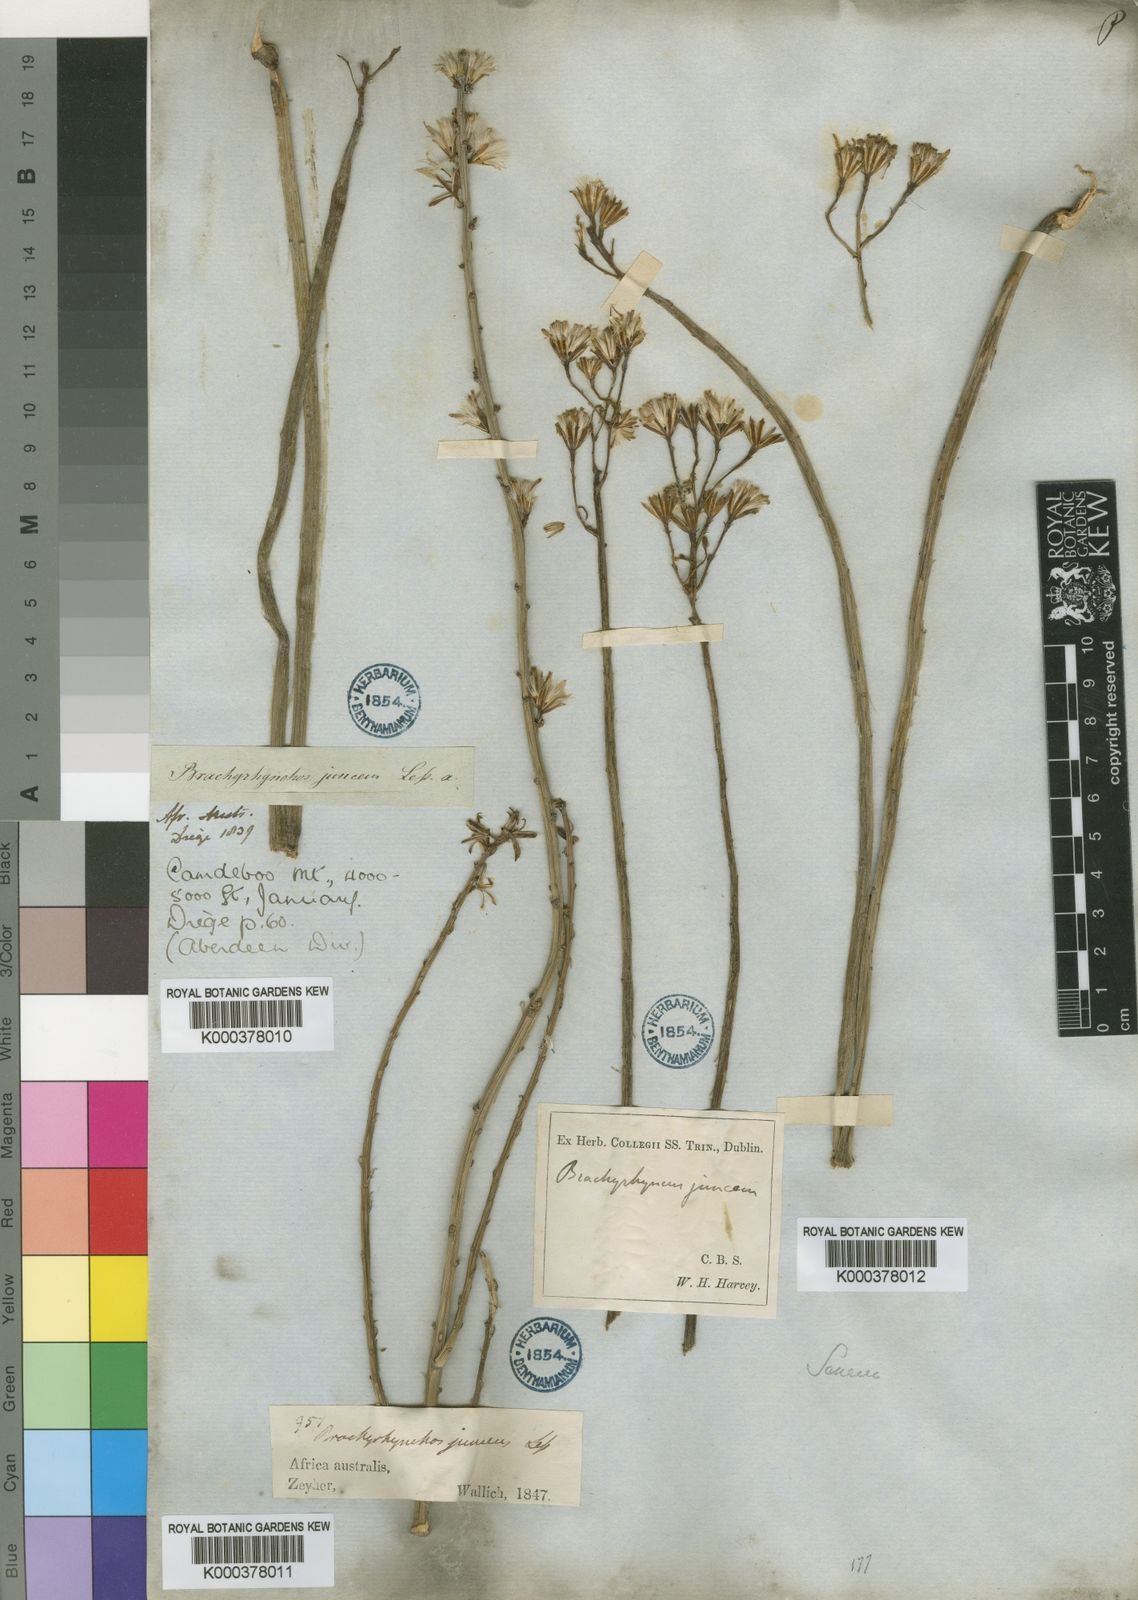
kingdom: Plantae
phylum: Tracheophyta
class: Magnoliopsida
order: Asterales
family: Asteraceae
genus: Senecio
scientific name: Senecio junceus
